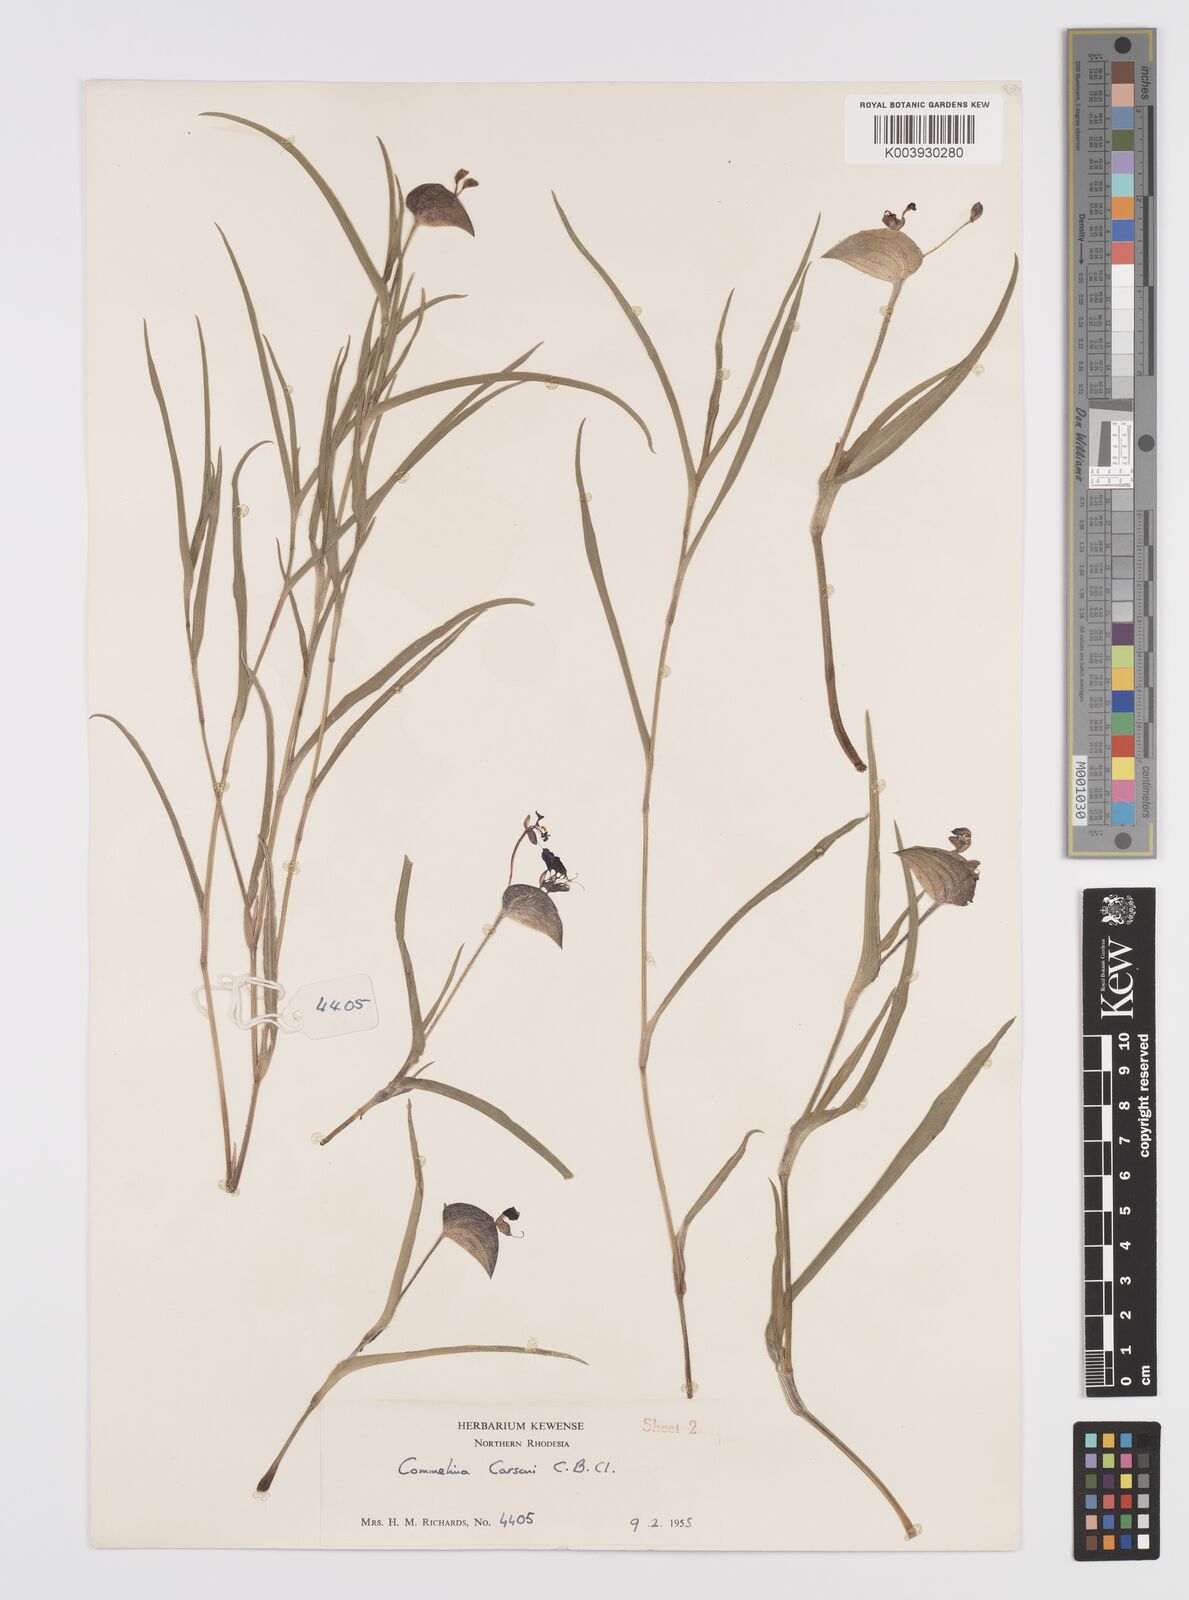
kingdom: Plantae
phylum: Tracheophyta
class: Liliopsida
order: Commelinales
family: Commelinaceae
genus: Commelina
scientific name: Commelina schweinfurthii
